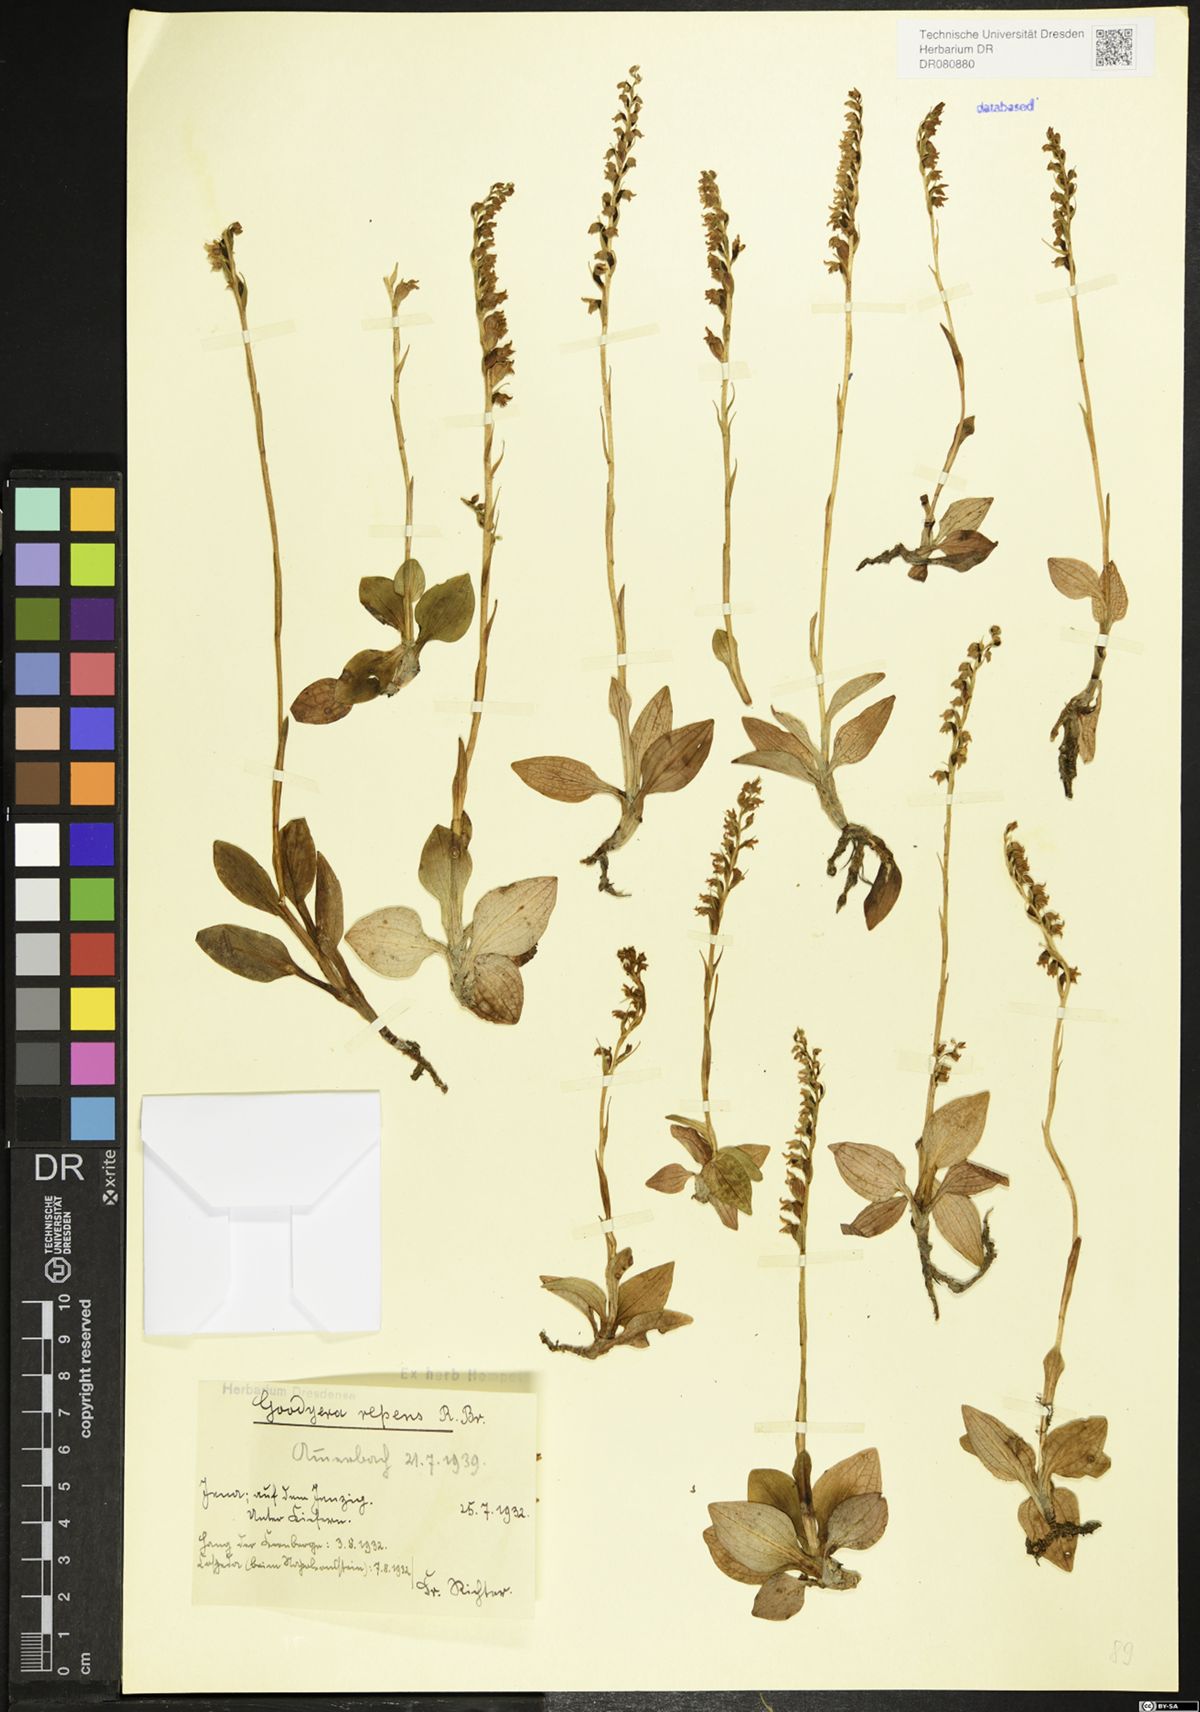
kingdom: Plantae
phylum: Tracheophyta
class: Liliopsida
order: Asparagales
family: Orchidaceae
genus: Goodyera
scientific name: Goodyera repens
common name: Creeping lady's-tresses
